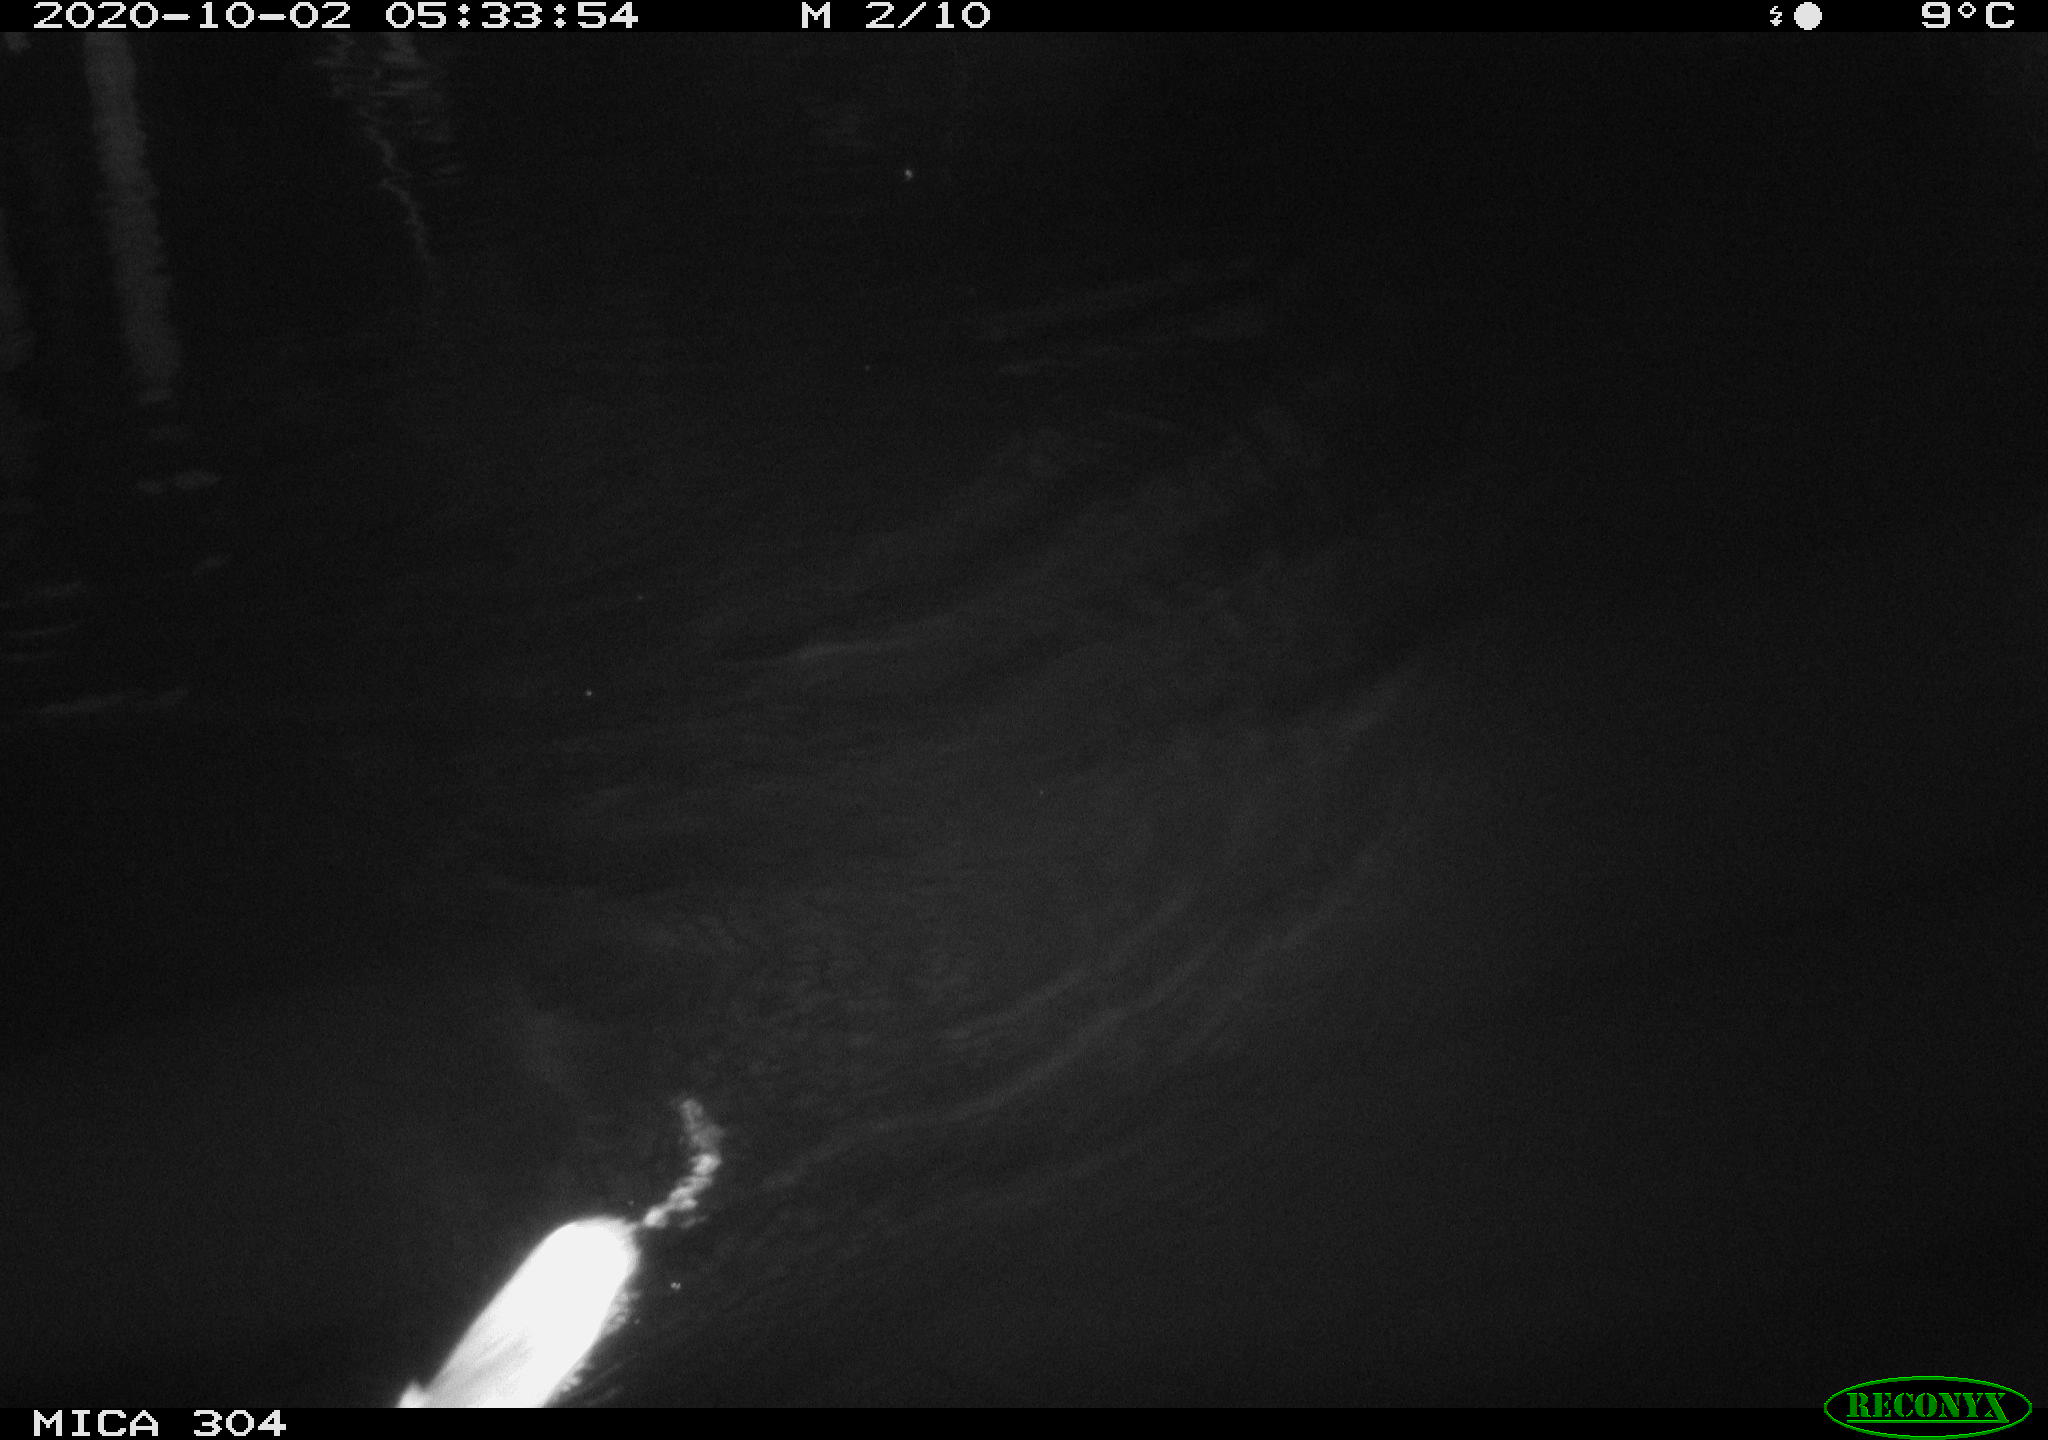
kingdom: Animalia
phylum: Chordata
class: Mammalia
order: Rodentia
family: Muridae
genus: Rattus
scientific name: Rattus norvegicus
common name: Brown rat
